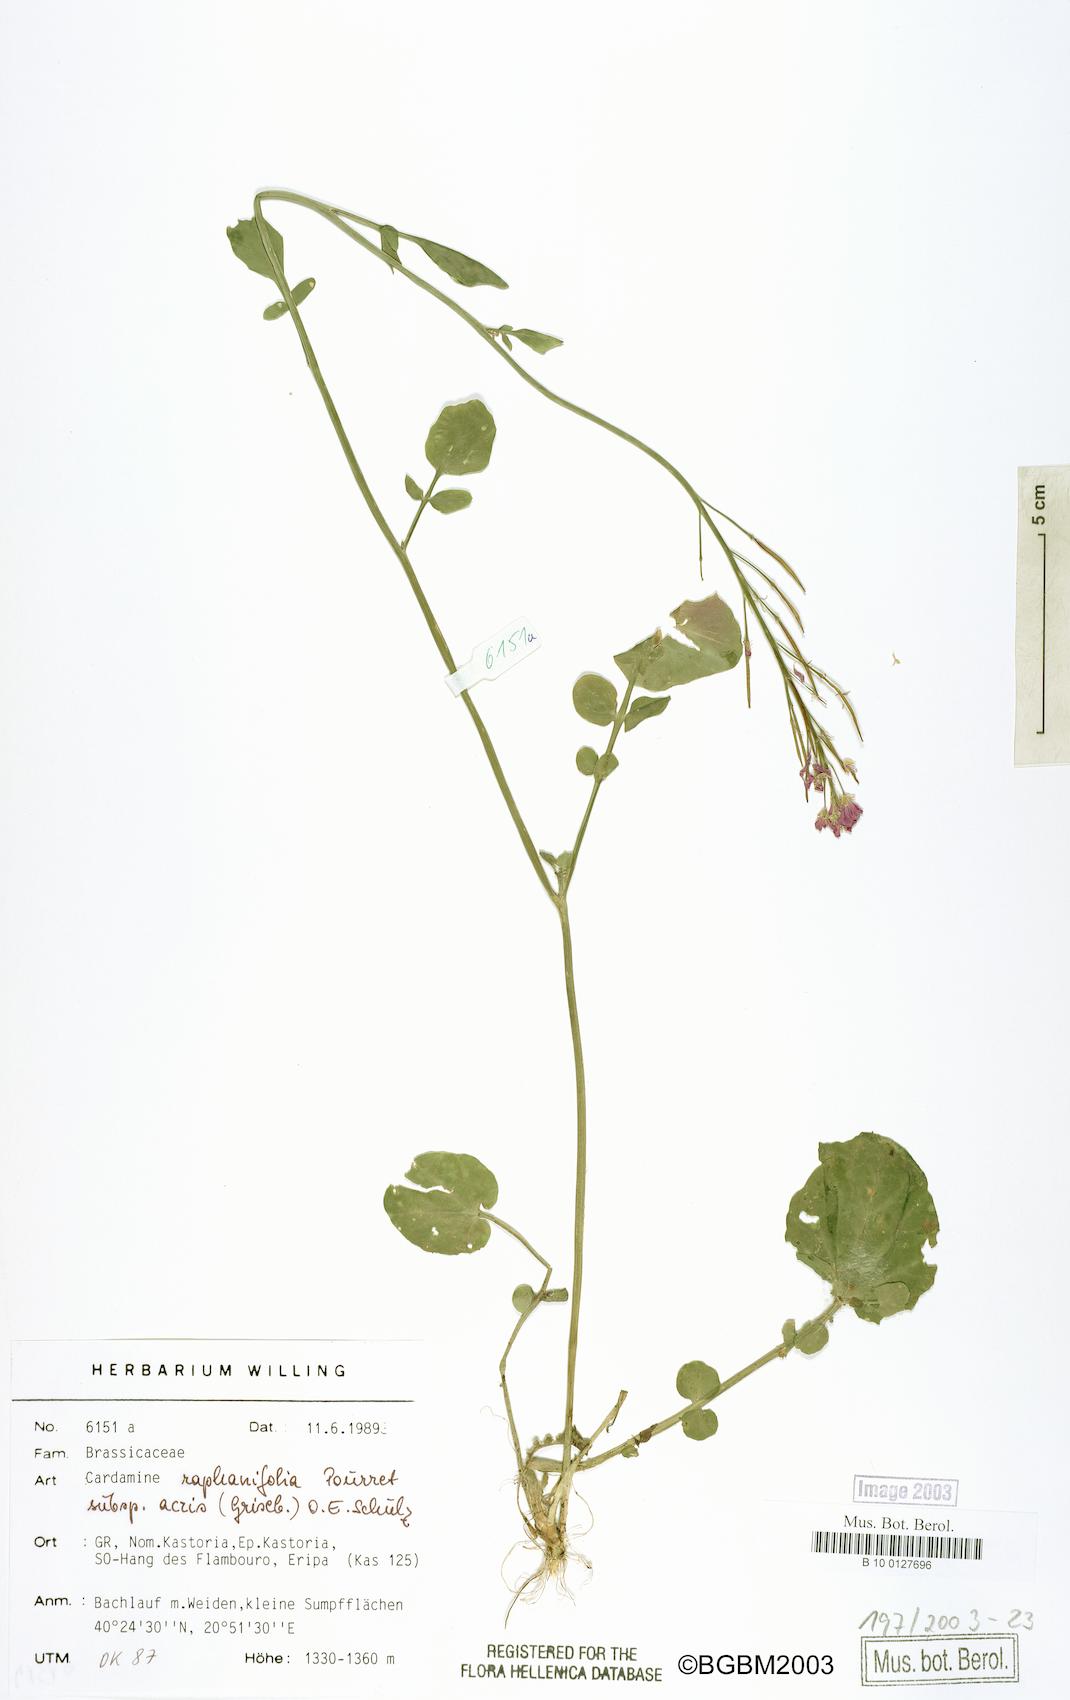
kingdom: Plantae
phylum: Tracheophyta
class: Magnoliopsida
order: Brassicales
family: Brassicaceae
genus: Cardamine
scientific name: Cardamine raphanifolia
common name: Greater cuckooflower
